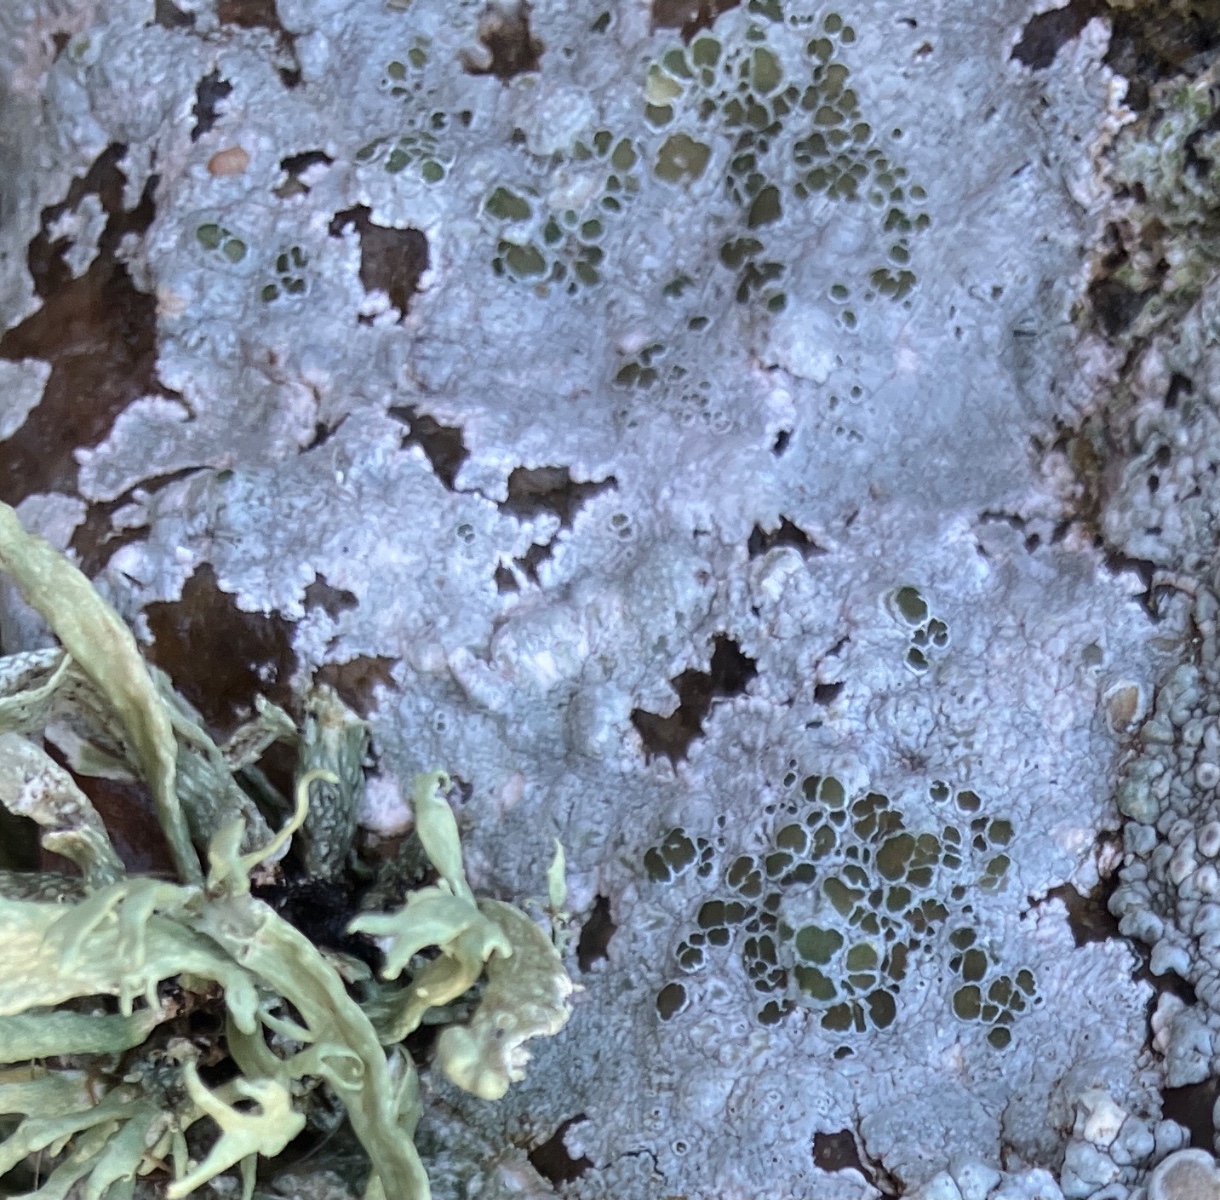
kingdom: Fungi
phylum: Ascomycota
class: Lecanoromycetes
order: Lecanorales
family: Lecanoraceae
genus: Lecanora
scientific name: Lecanora
